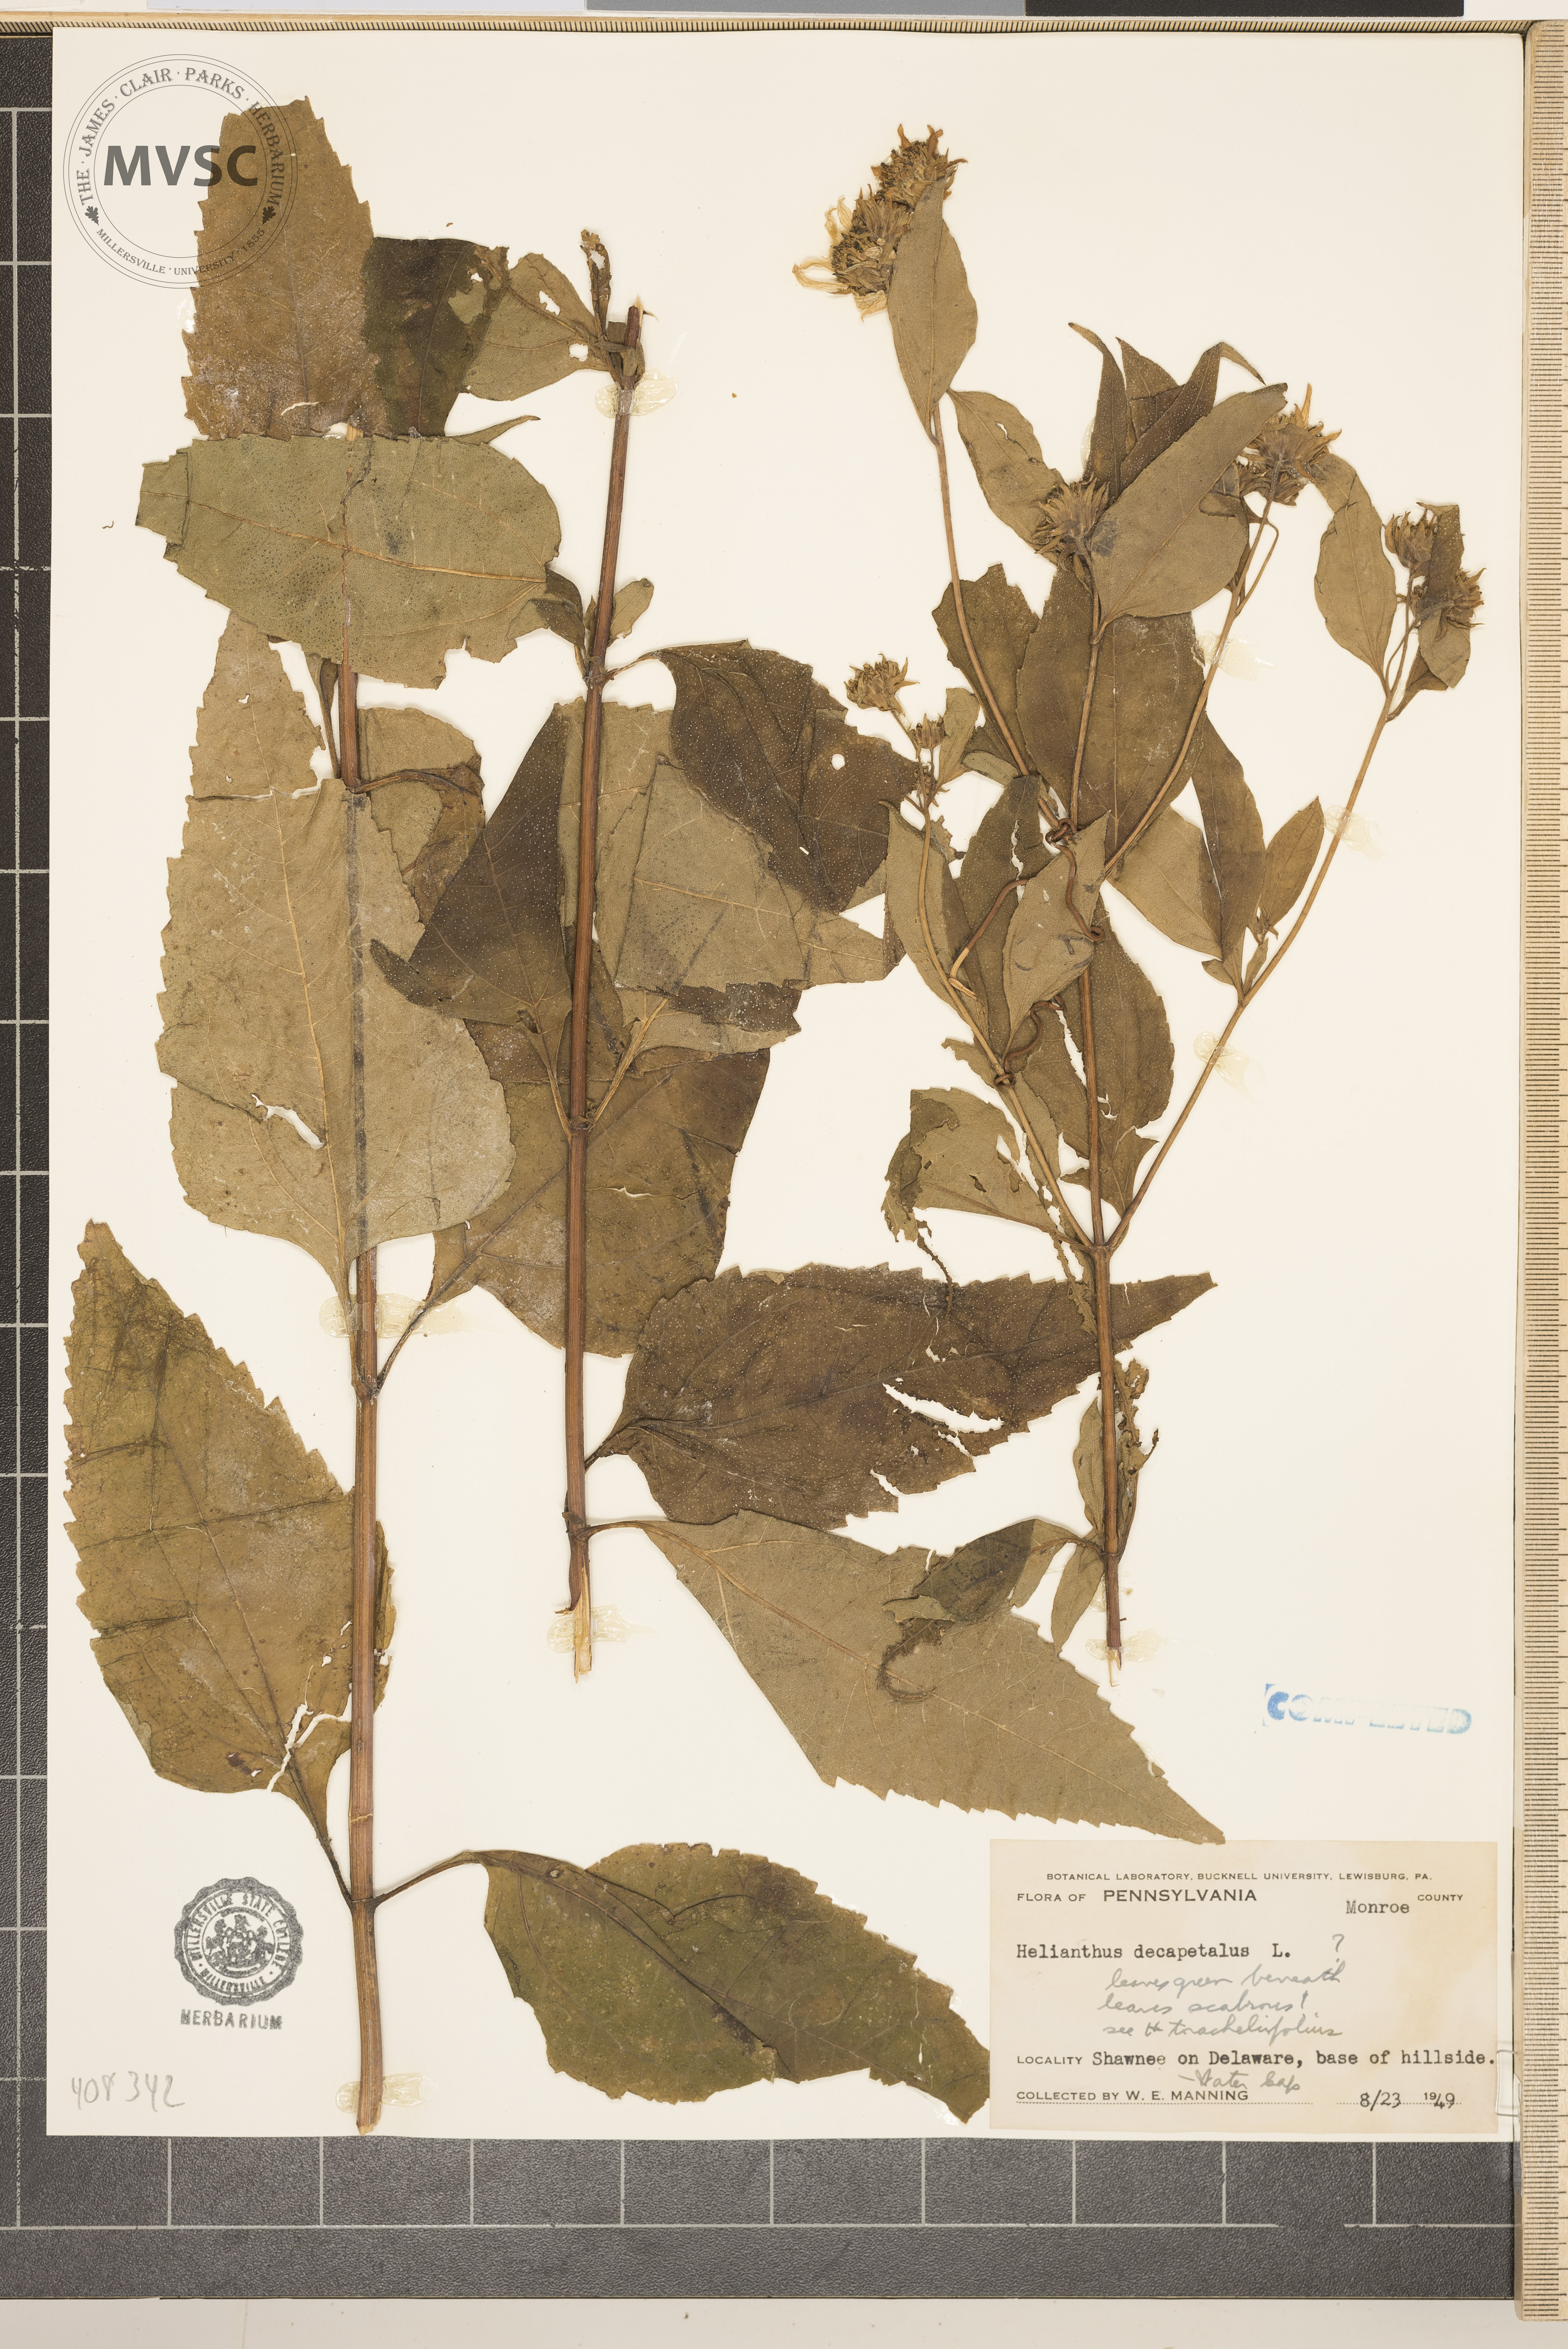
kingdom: Plantae
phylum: Tracheophyta
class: Magnoliopsida
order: Asterales
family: Asteraceae
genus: Helianthus
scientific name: Helianthus decapetalus
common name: Thin-leaved sunflower
